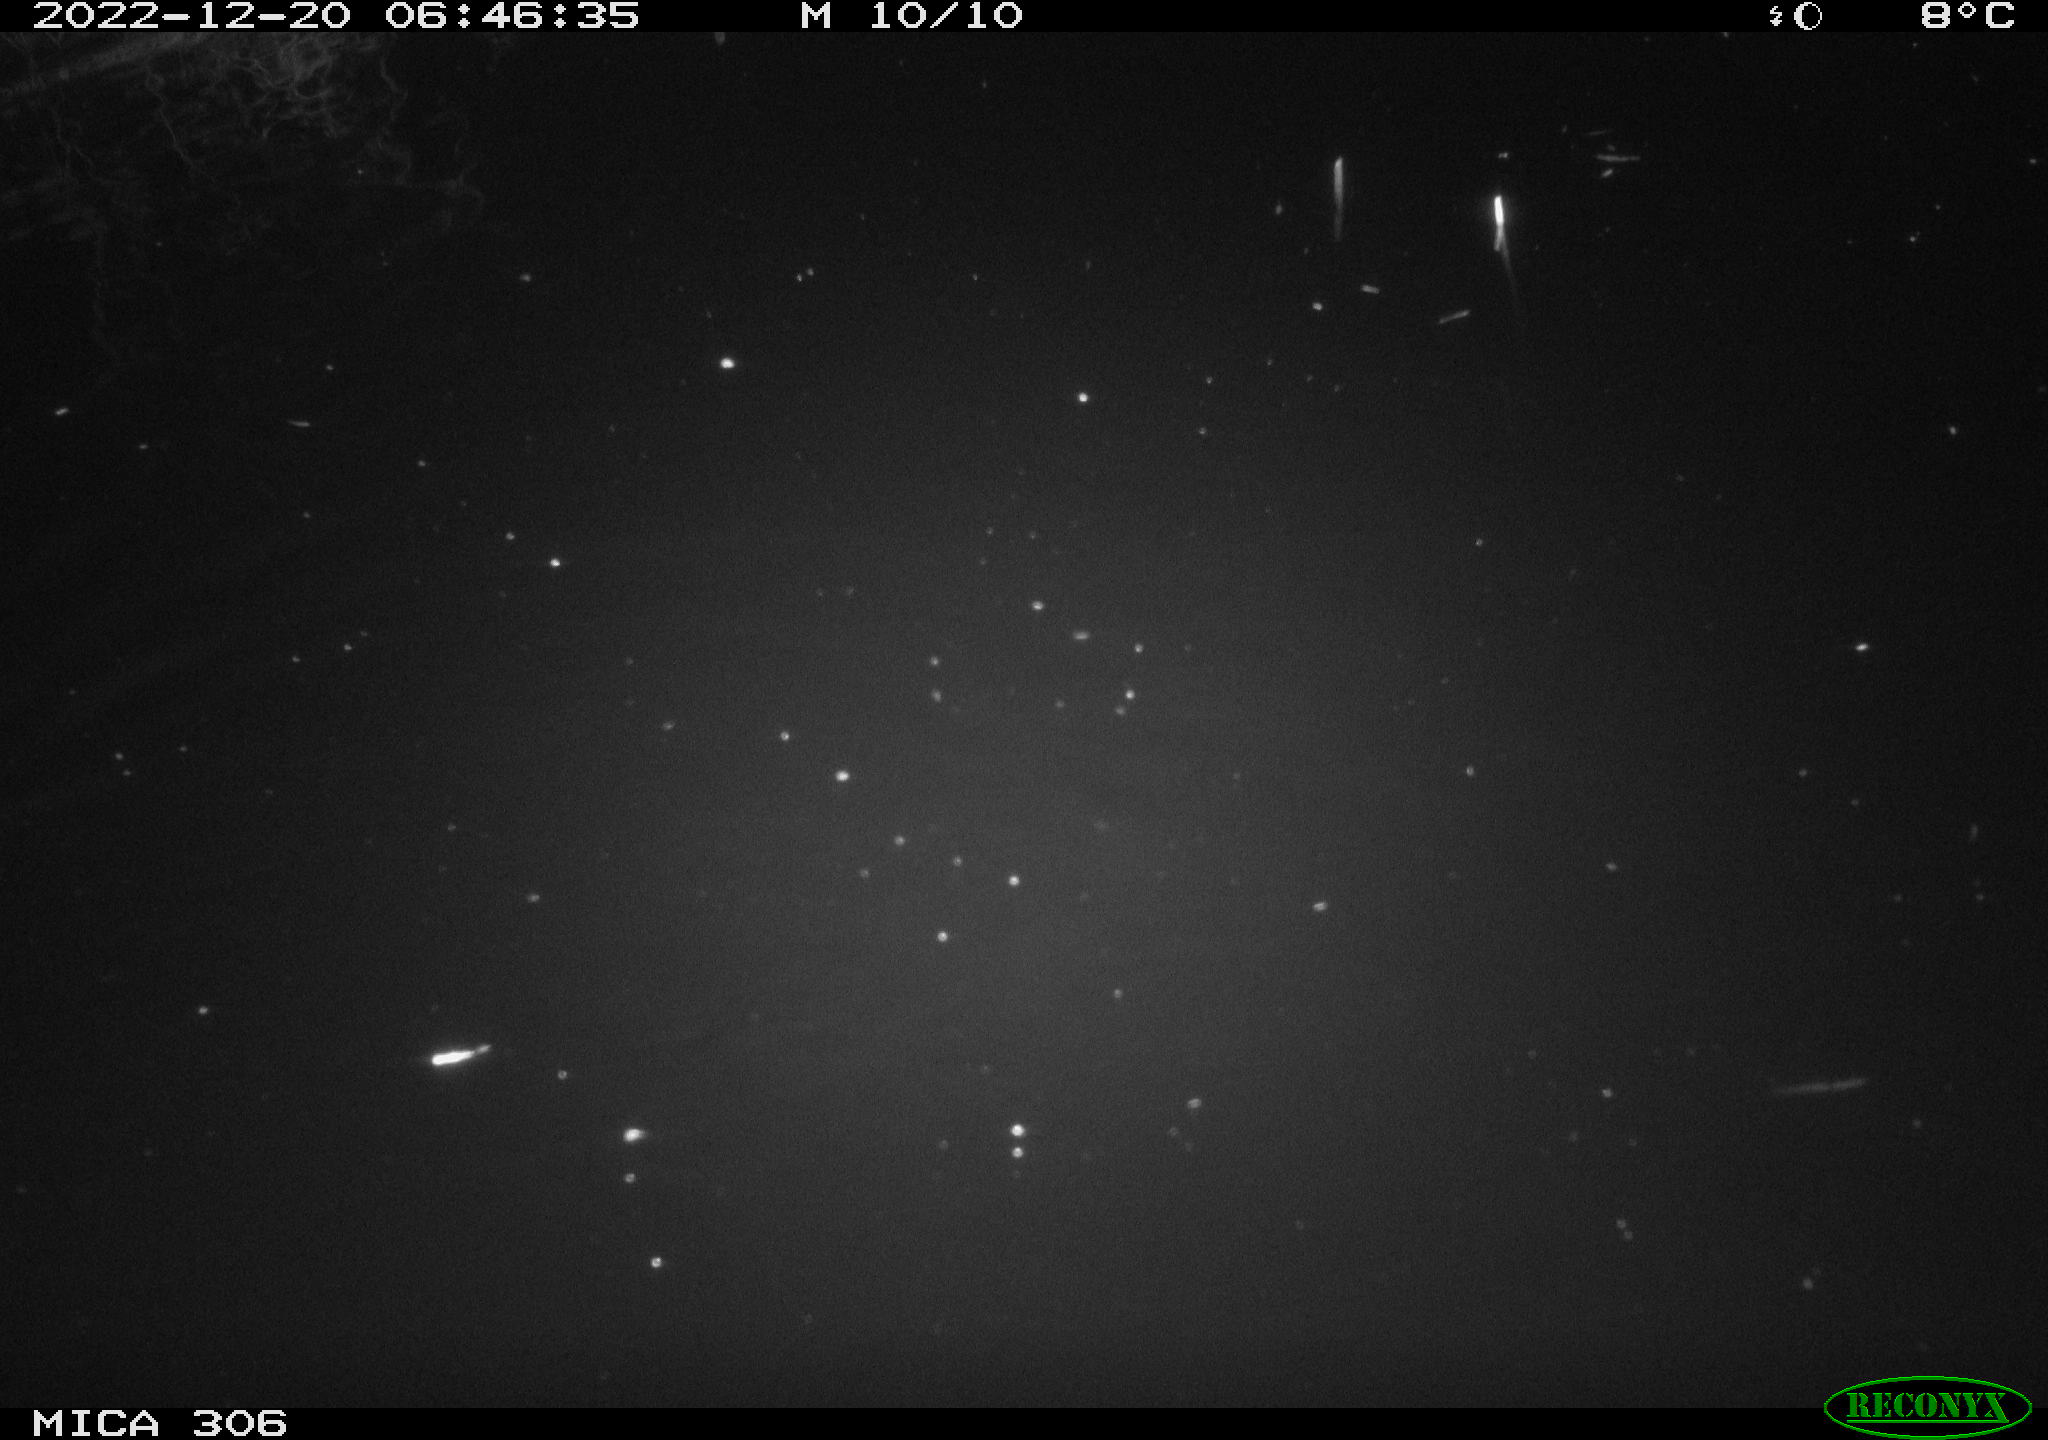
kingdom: Animalia
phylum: Chordata
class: Mammalia
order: Rodentia
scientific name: Rodentia
